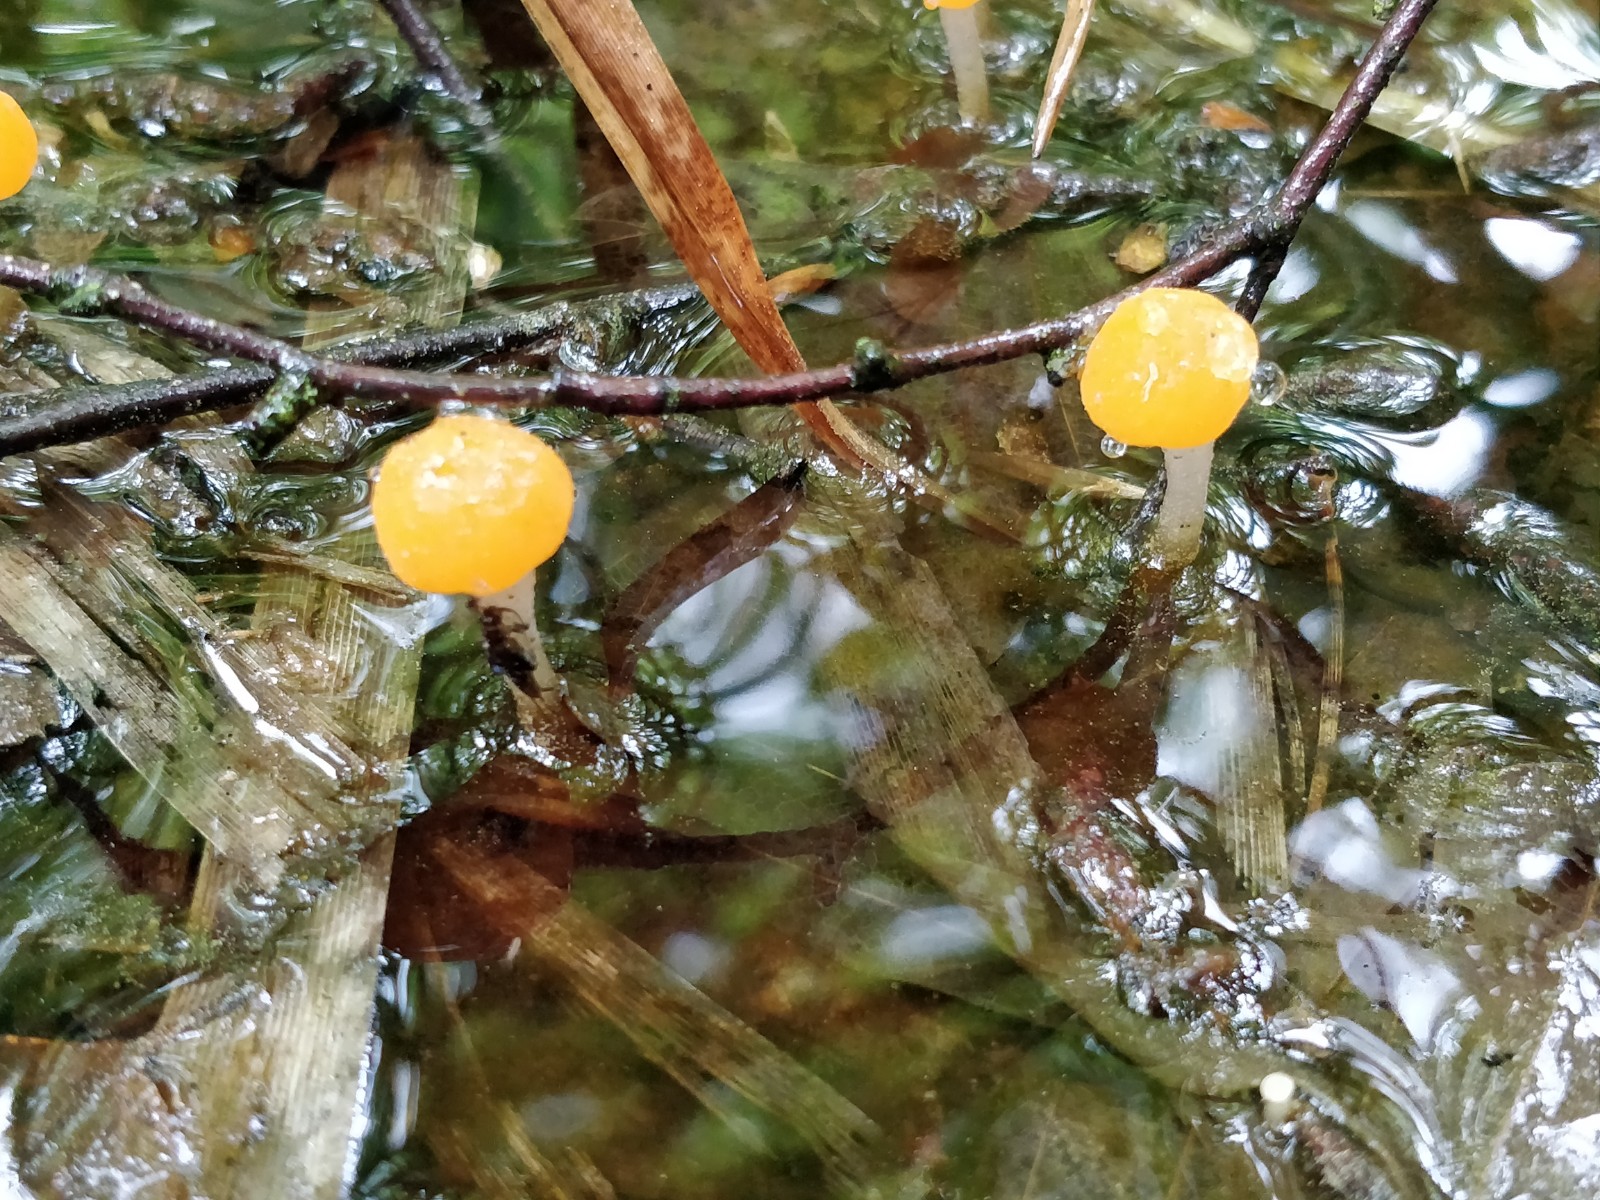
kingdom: Fungi
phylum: Ascomycota
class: Leotiomycetes
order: Helotiales
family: Cenangiaceae
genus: Mitrula
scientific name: Mitrula paludosa
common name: gul nøkketunge
